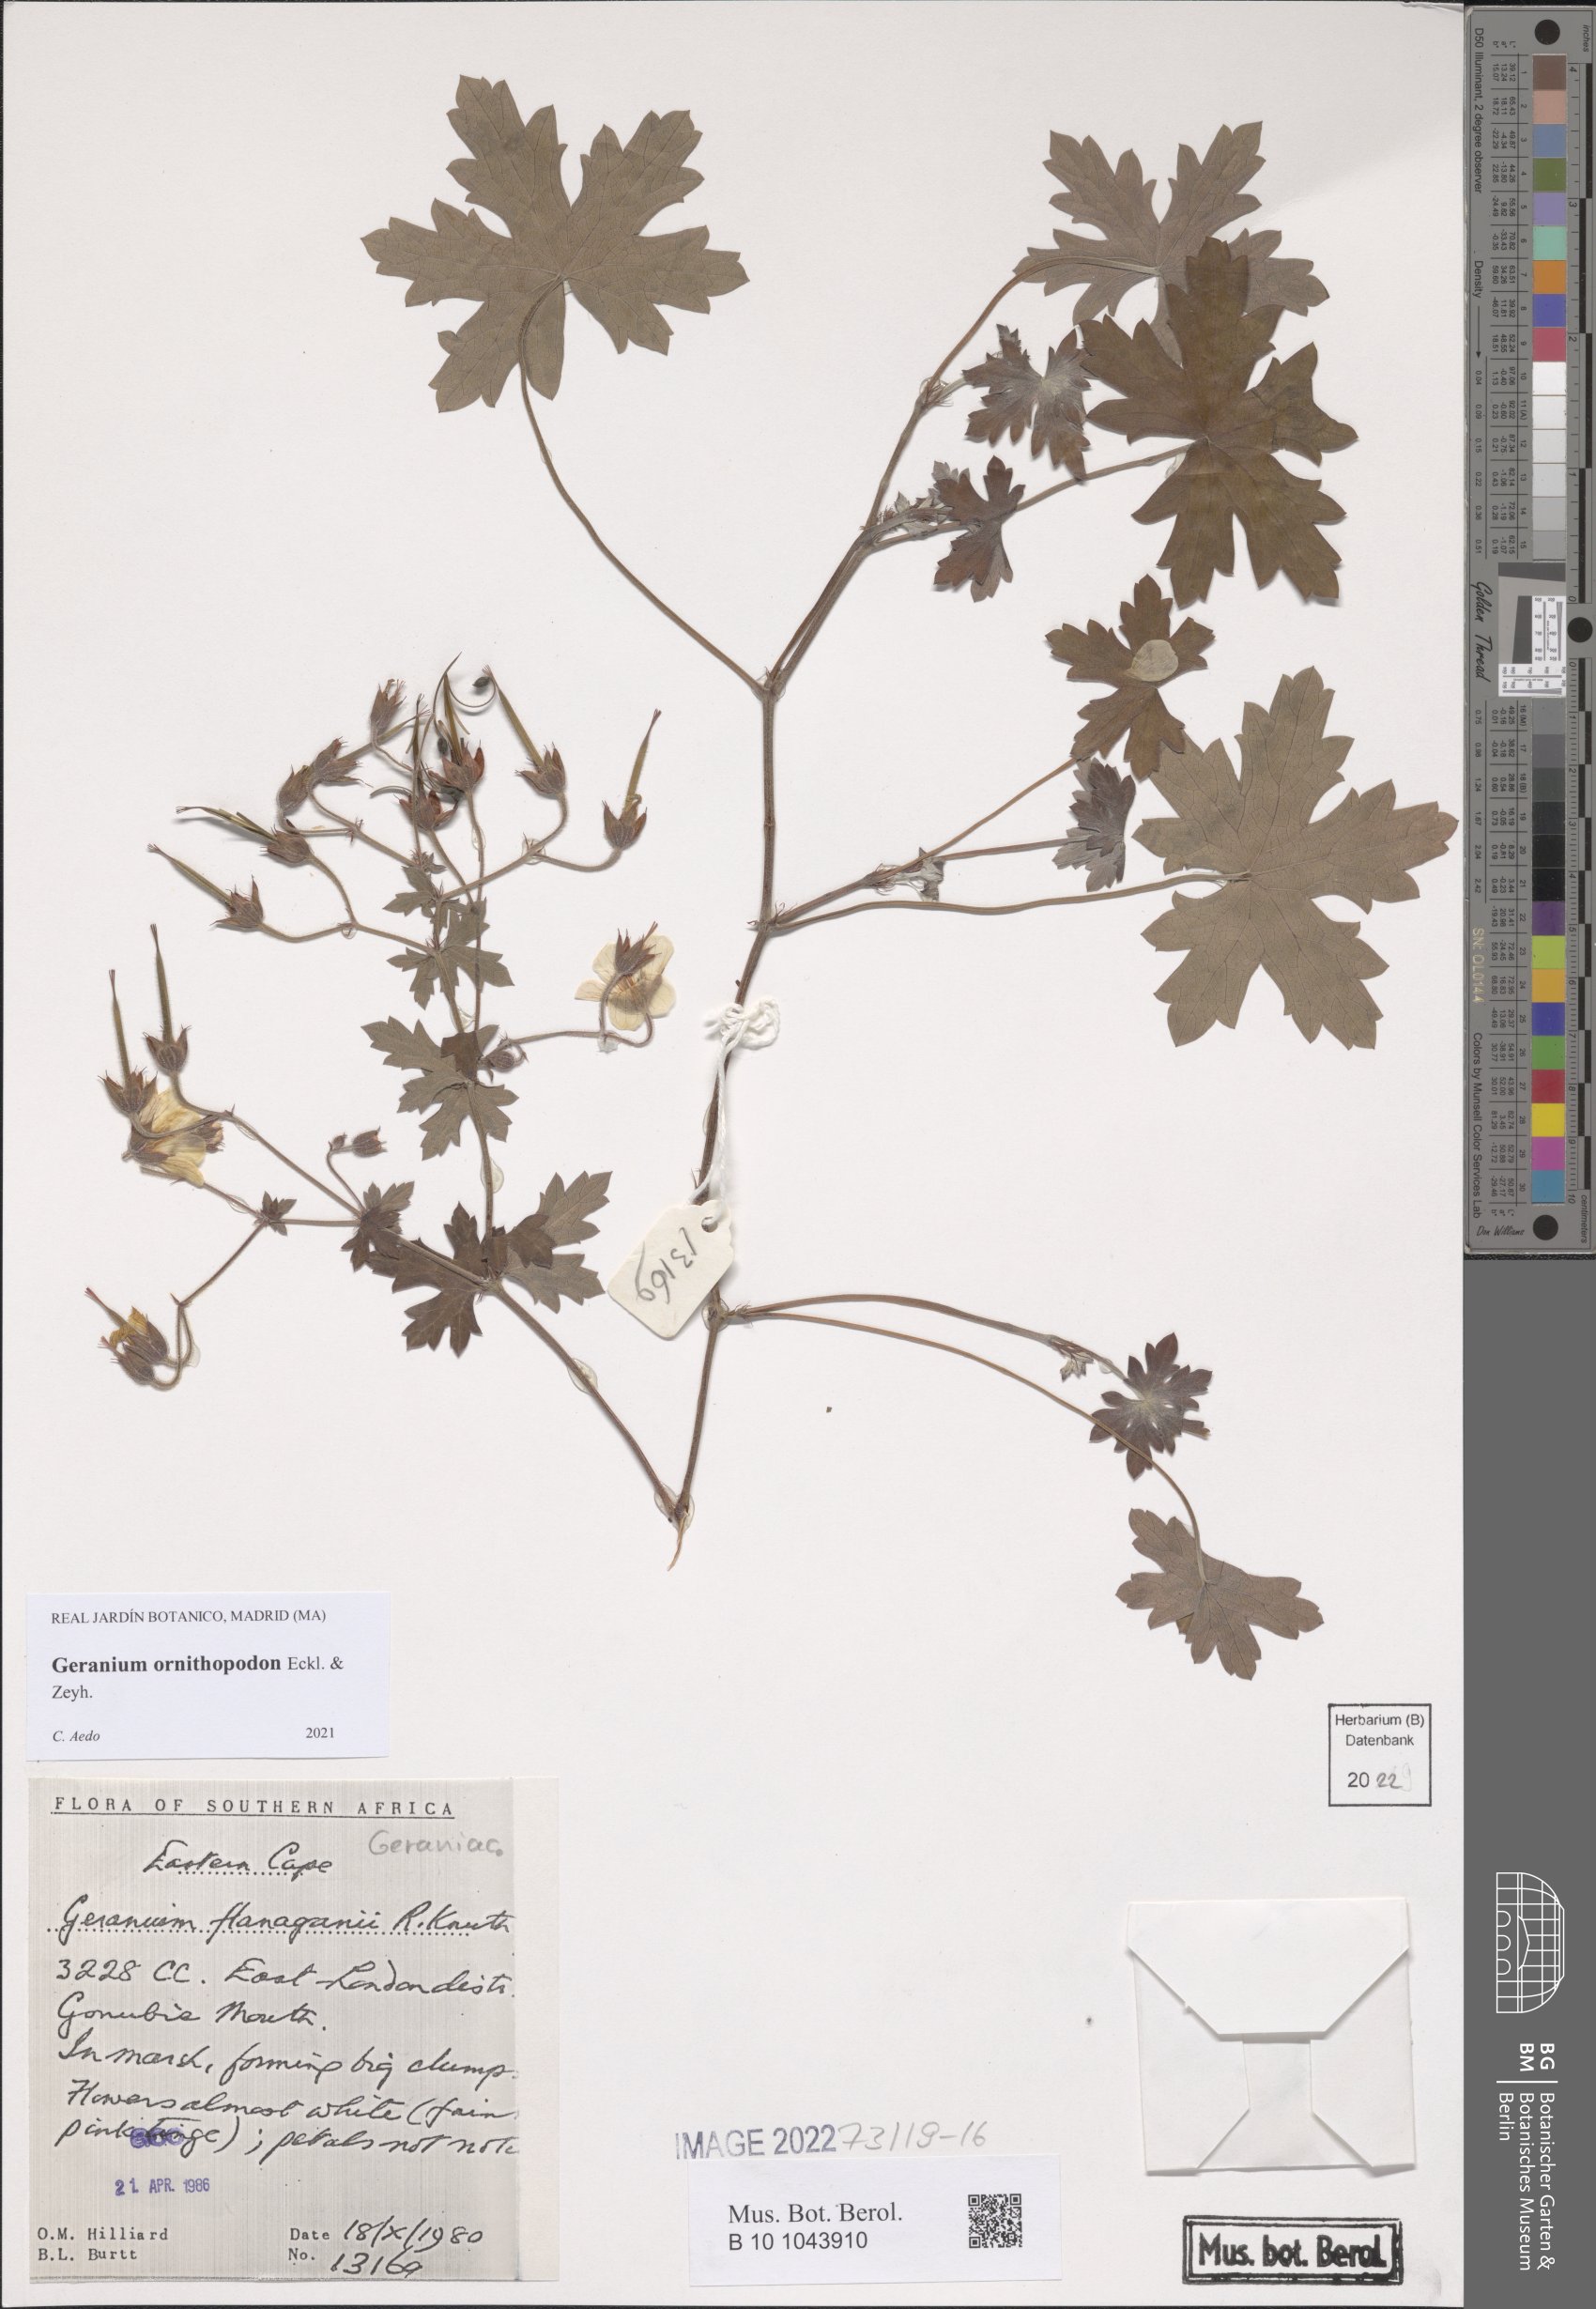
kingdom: Plantae
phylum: Tracheophyta
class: Magnoliopsida
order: Geraniales
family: Geraniaceae
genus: Geranium
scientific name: Geranium ornithopodon
